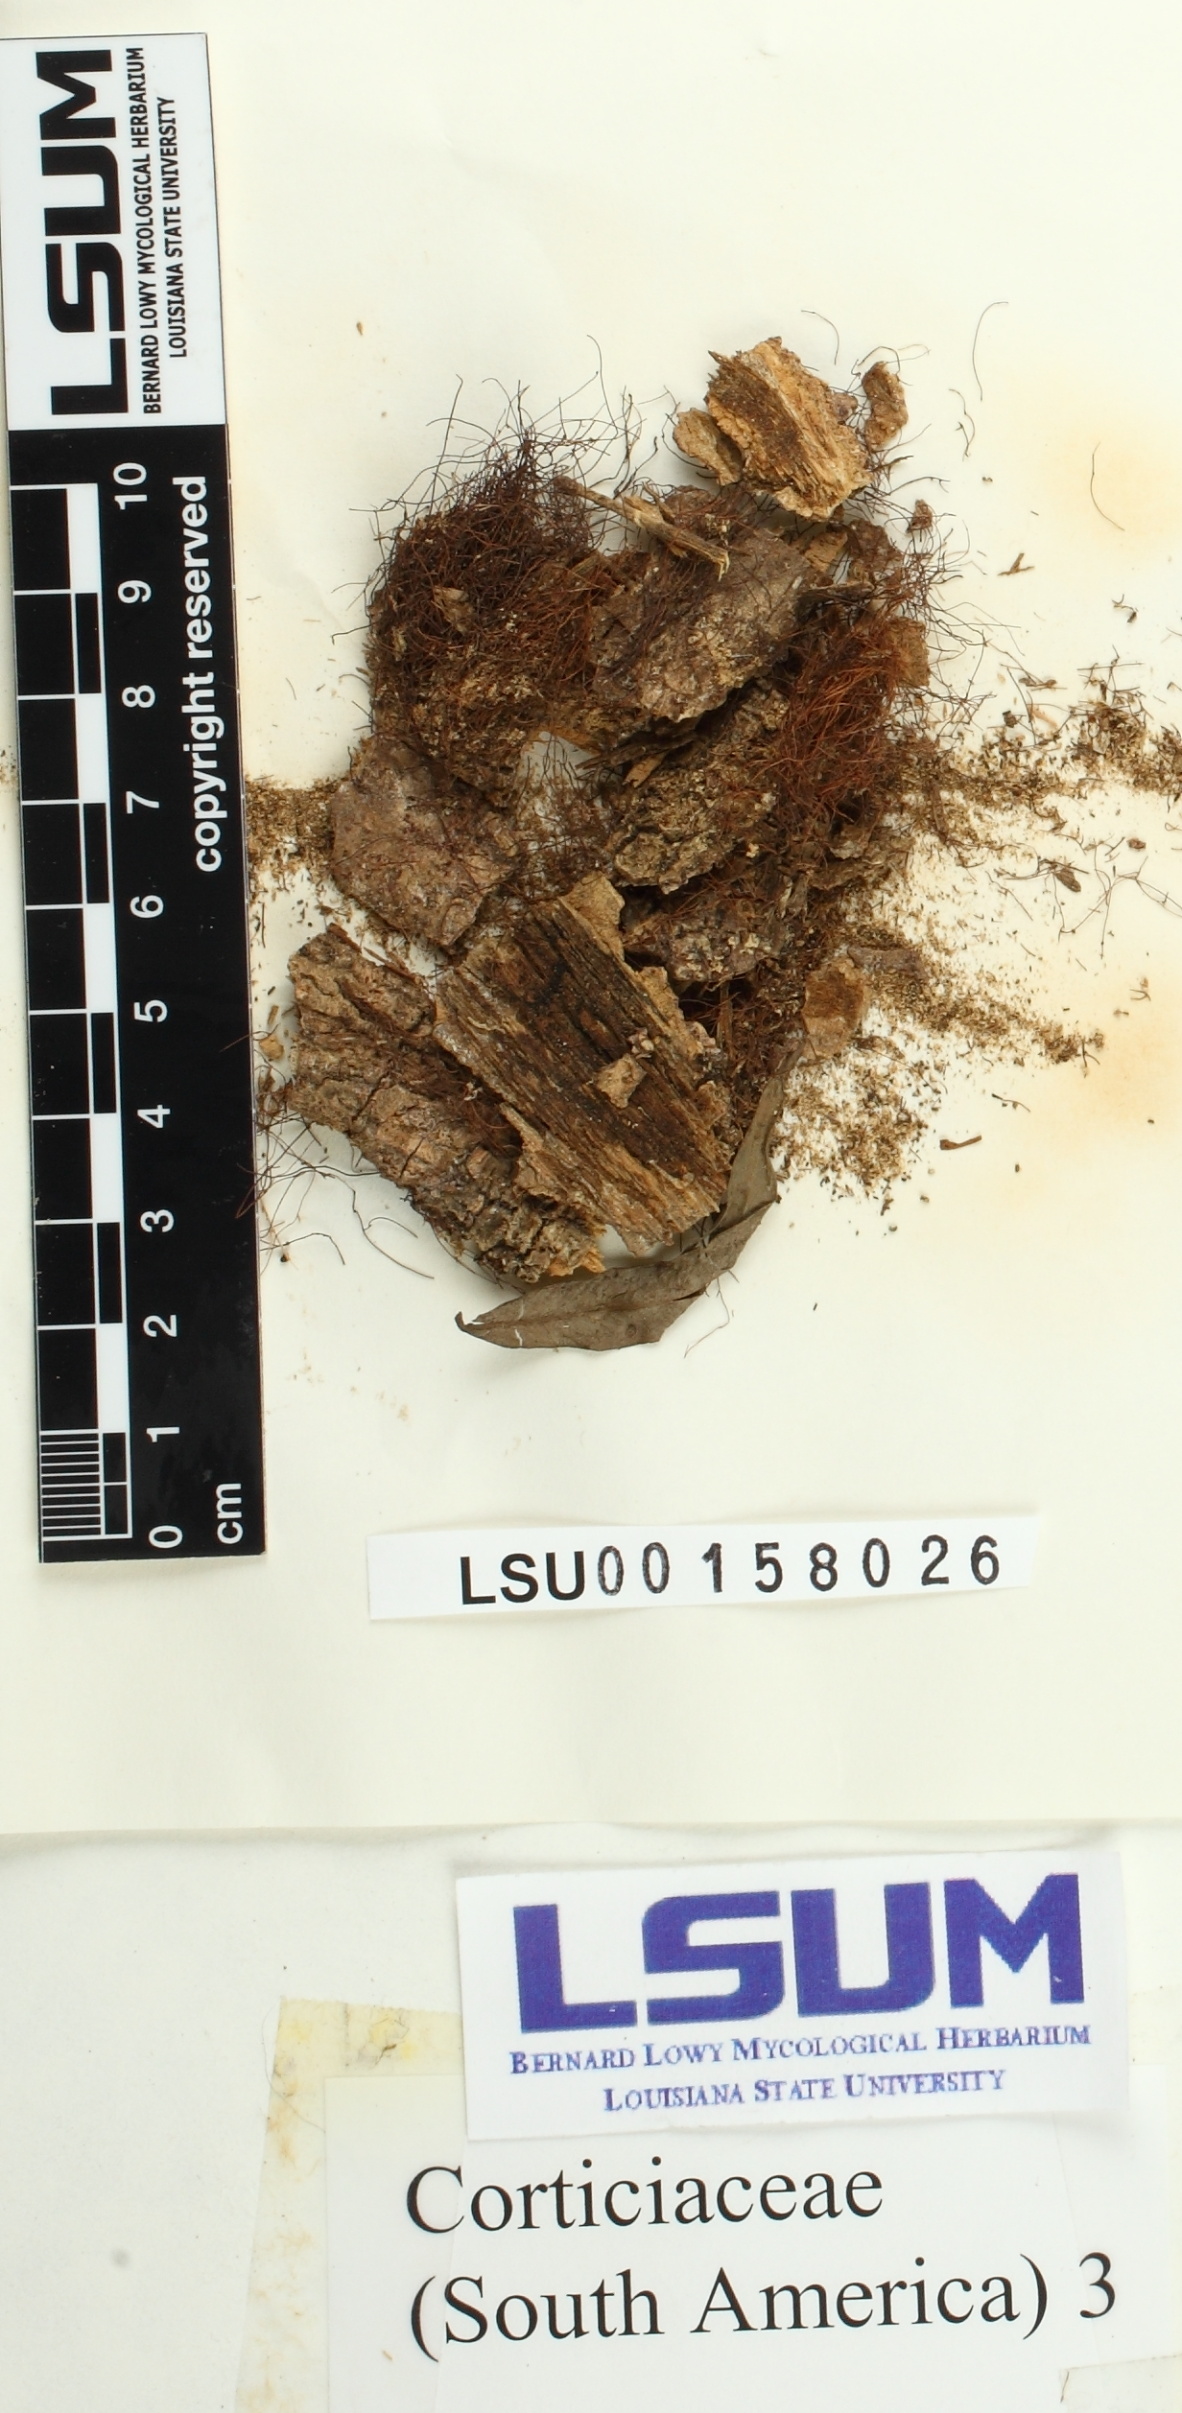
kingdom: Fungi
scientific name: Fungi
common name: Fungi
